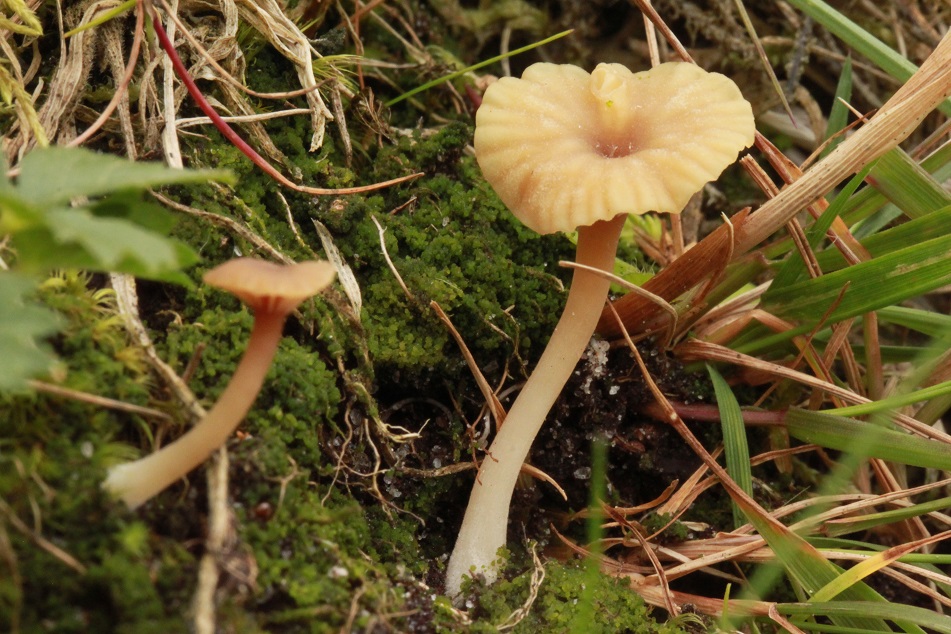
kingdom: Fungi
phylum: Basidiomycota
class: Agaricomycetes
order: Agaricales
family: Hygrophoraceae
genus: Lichenomphalia
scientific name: Lichenomphalia umbellifera
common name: tørve-lavhat
